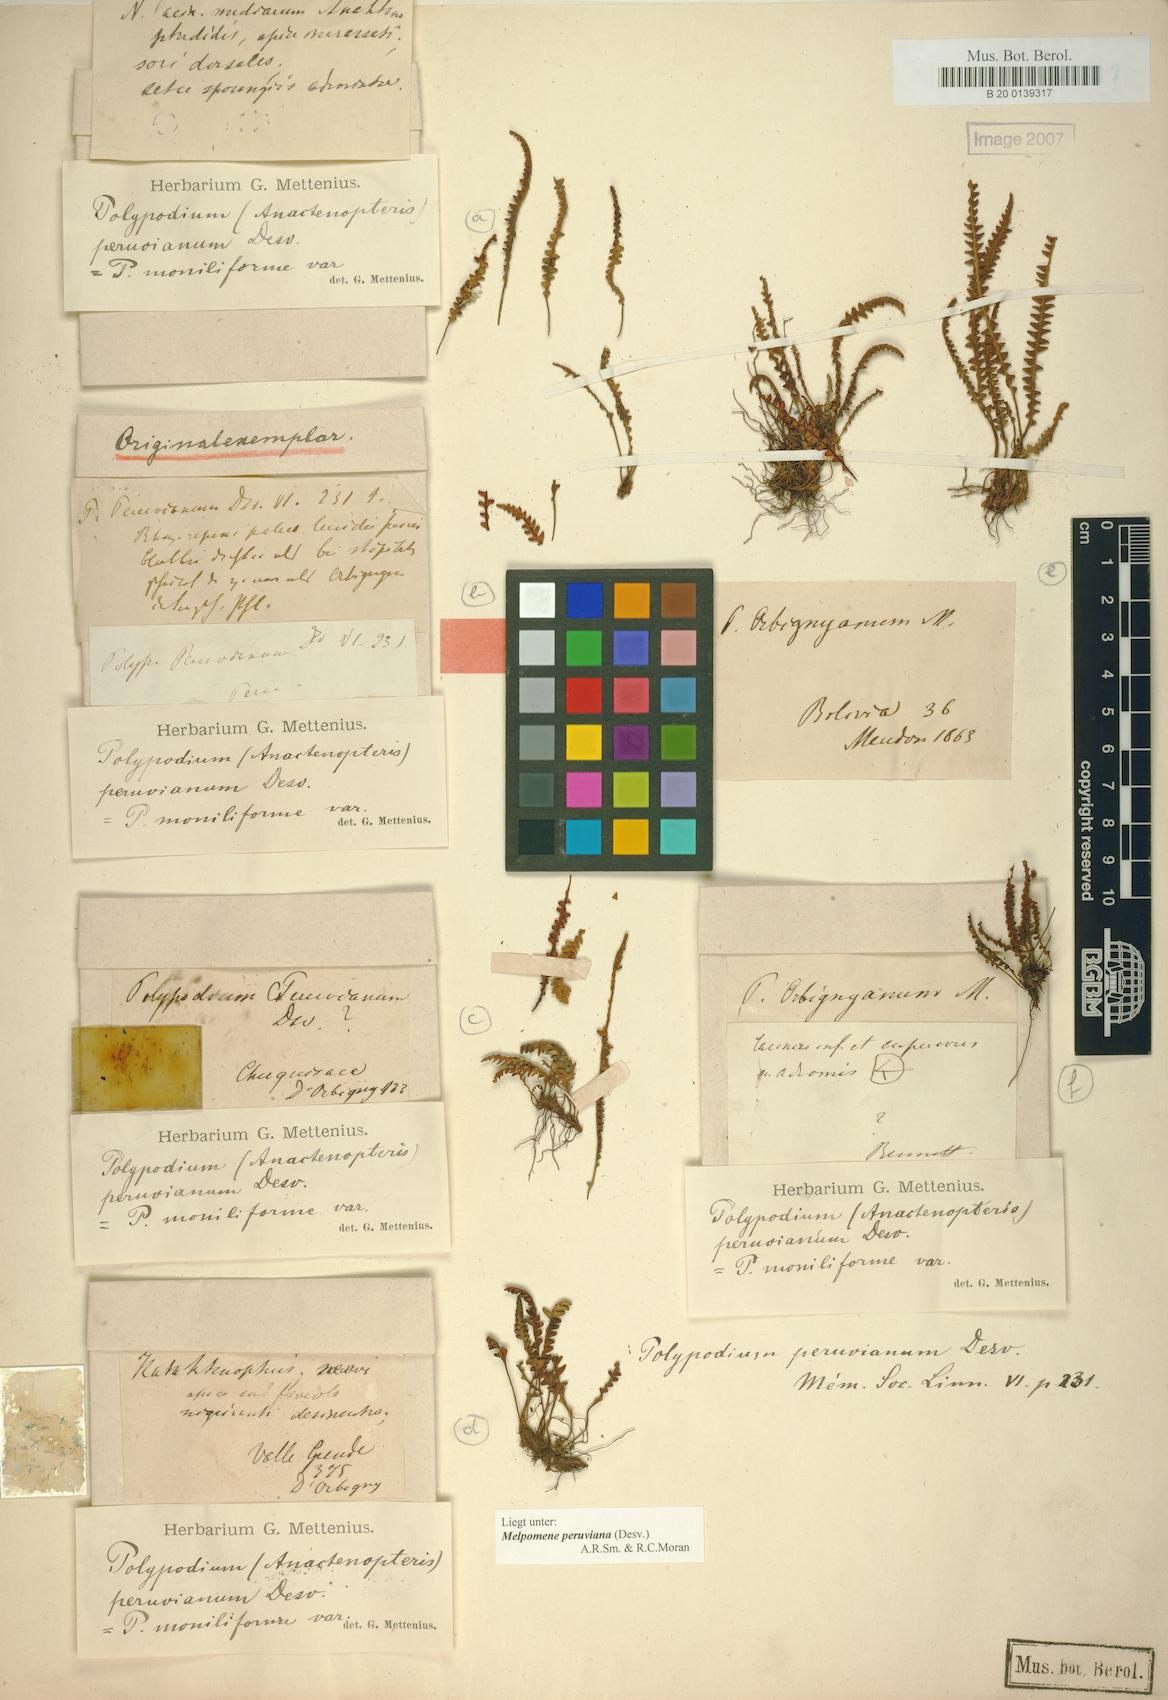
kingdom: Plantae
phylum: Tracheophyta
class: Polypodiopsida
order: Polypodiales
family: Polypodiaceae
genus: Melpomene
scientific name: Melpomene peruviana
